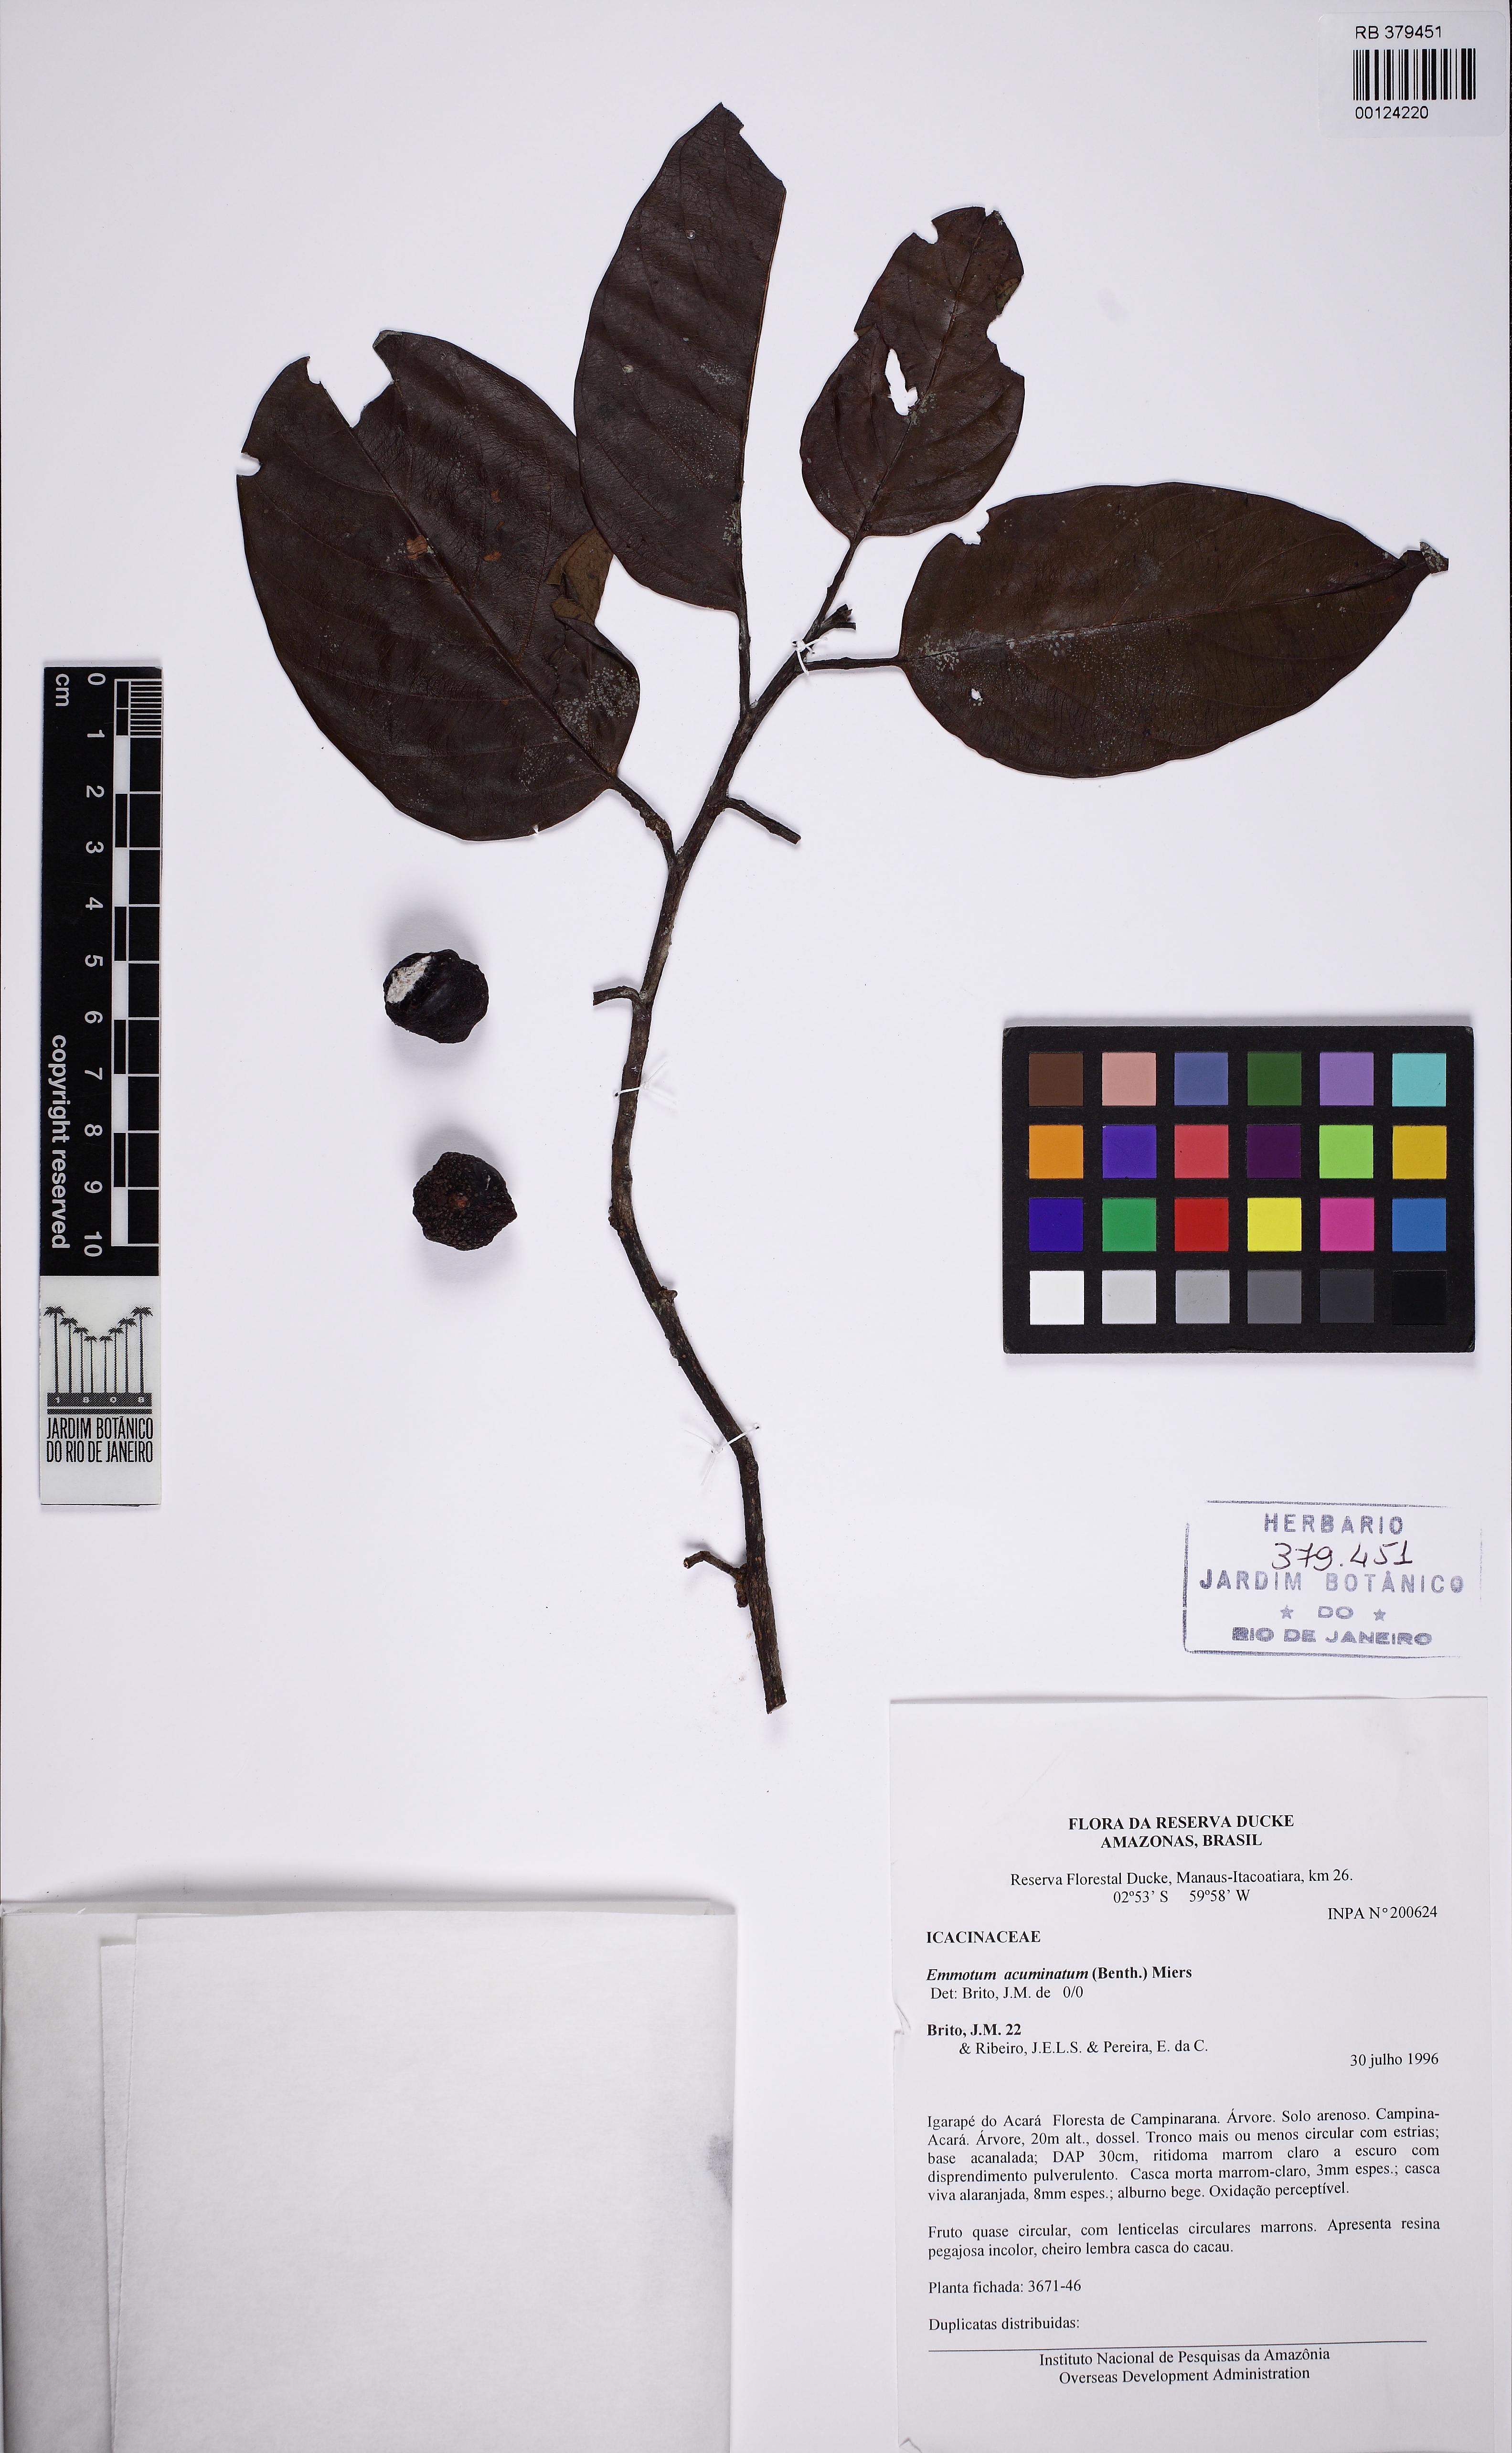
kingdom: Plantae
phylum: Tracheophyta
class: Magnoliopsida
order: Metteniusales
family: Metteniusaceae
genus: Emmotum
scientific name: Emmotum acuminatum
